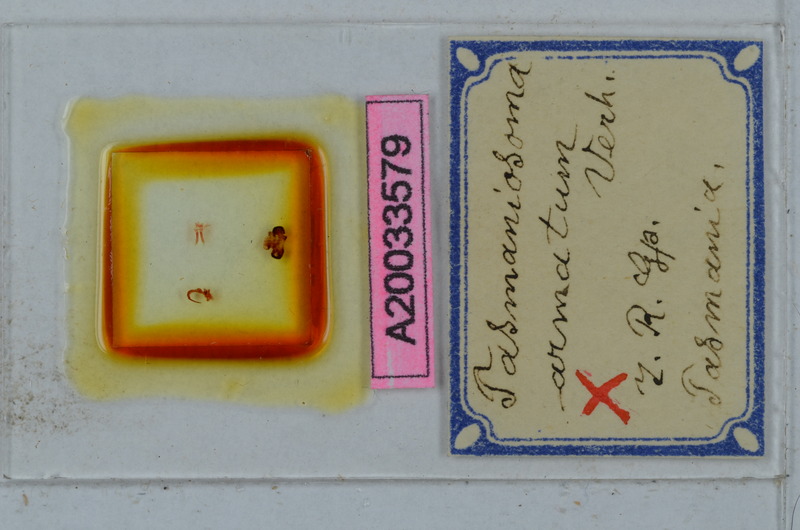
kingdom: Animalia
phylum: Arthropoda
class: Diplopoda
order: Polydesmida
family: Dalodesmidae
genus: Tasmaniosoma
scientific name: Tasmaniosoma armatum
